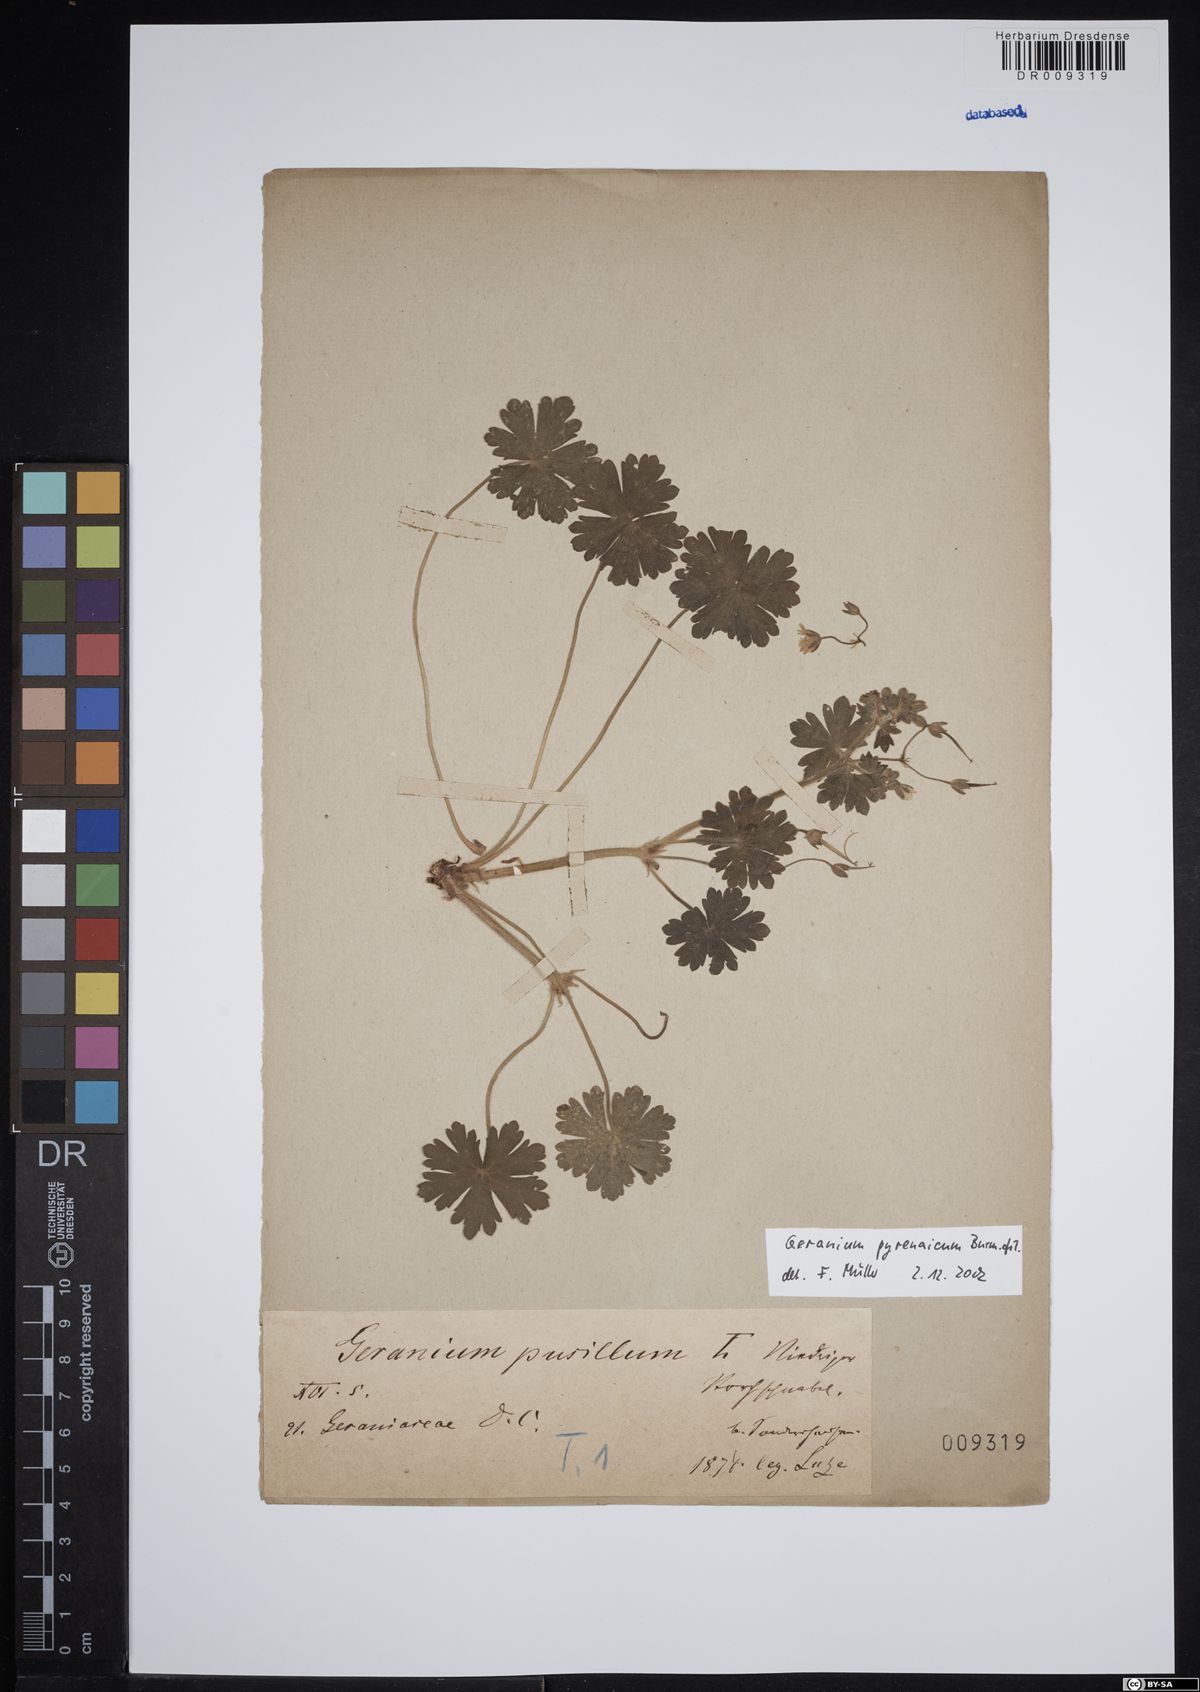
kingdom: Plantae
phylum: Tracheophyta
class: Magnoliopsida
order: Geraniales
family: Geraniaceae
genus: Geranium
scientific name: Geranium pyrenaicum
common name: Hedgerow crane's-bill
